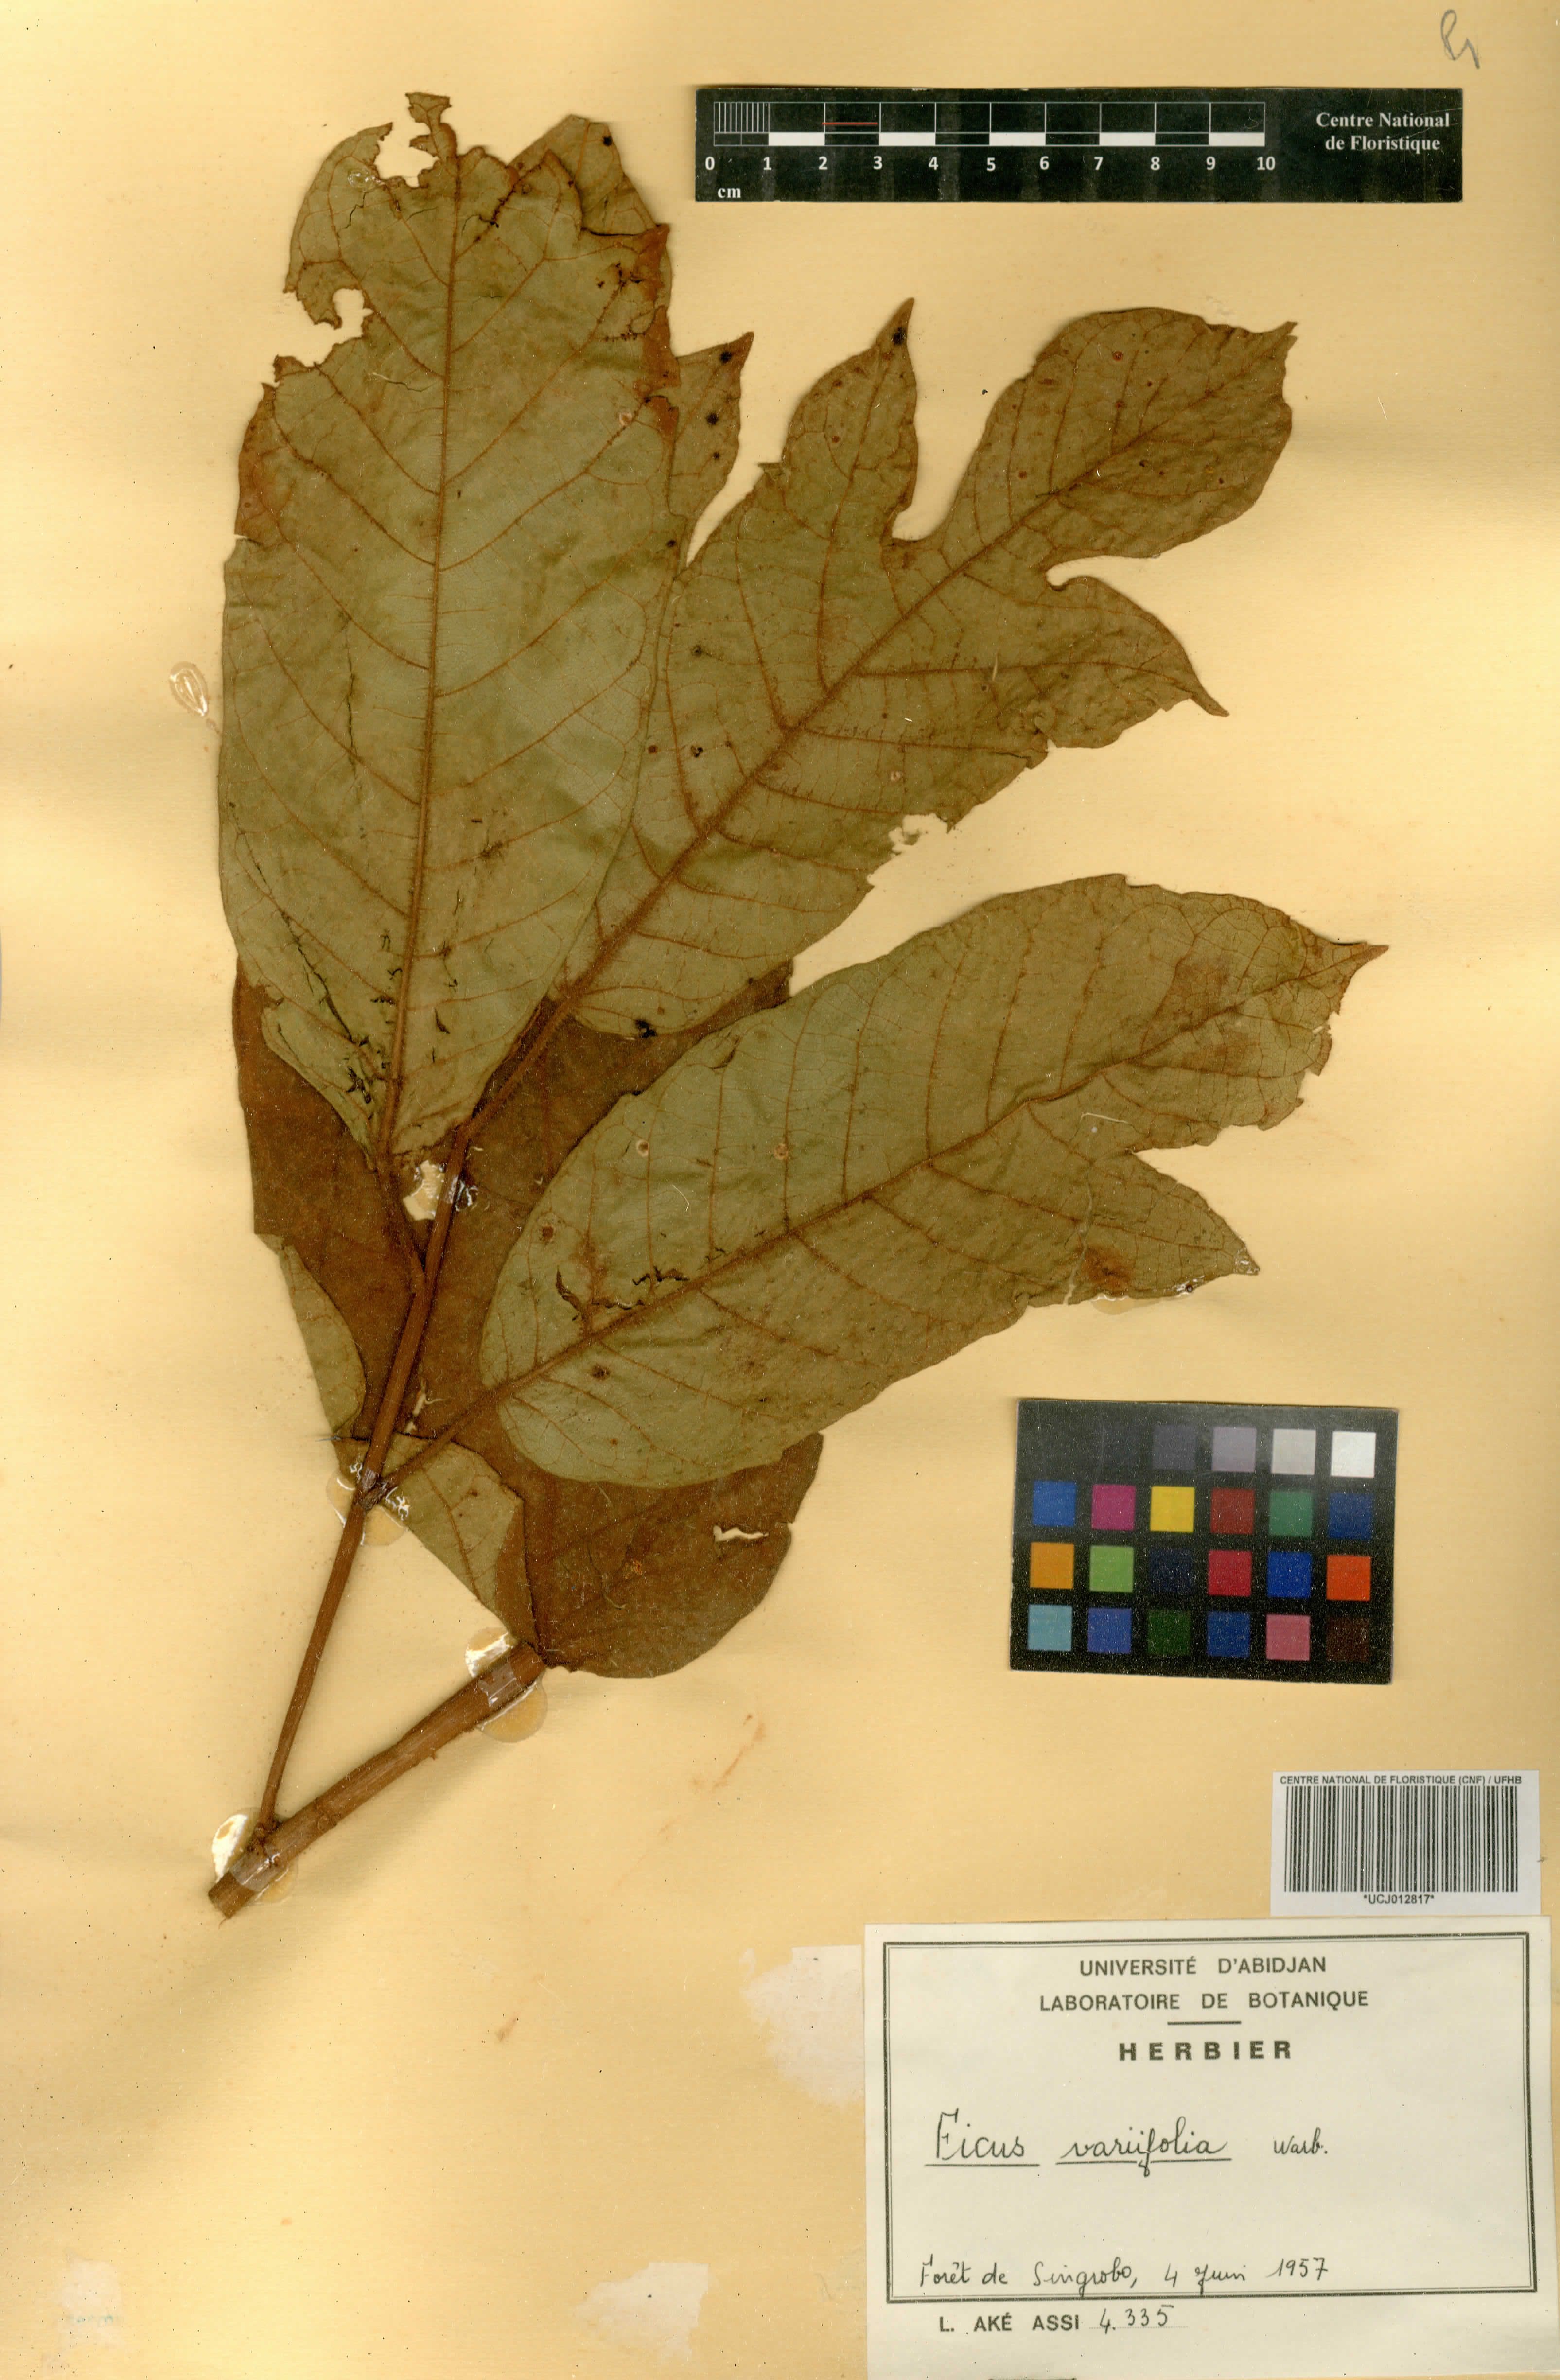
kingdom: Plantae
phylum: Tracheophyta
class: Magnoliopsida
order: Rosales
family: Moraceae
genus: Ficus
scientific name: Ficus variifolia
